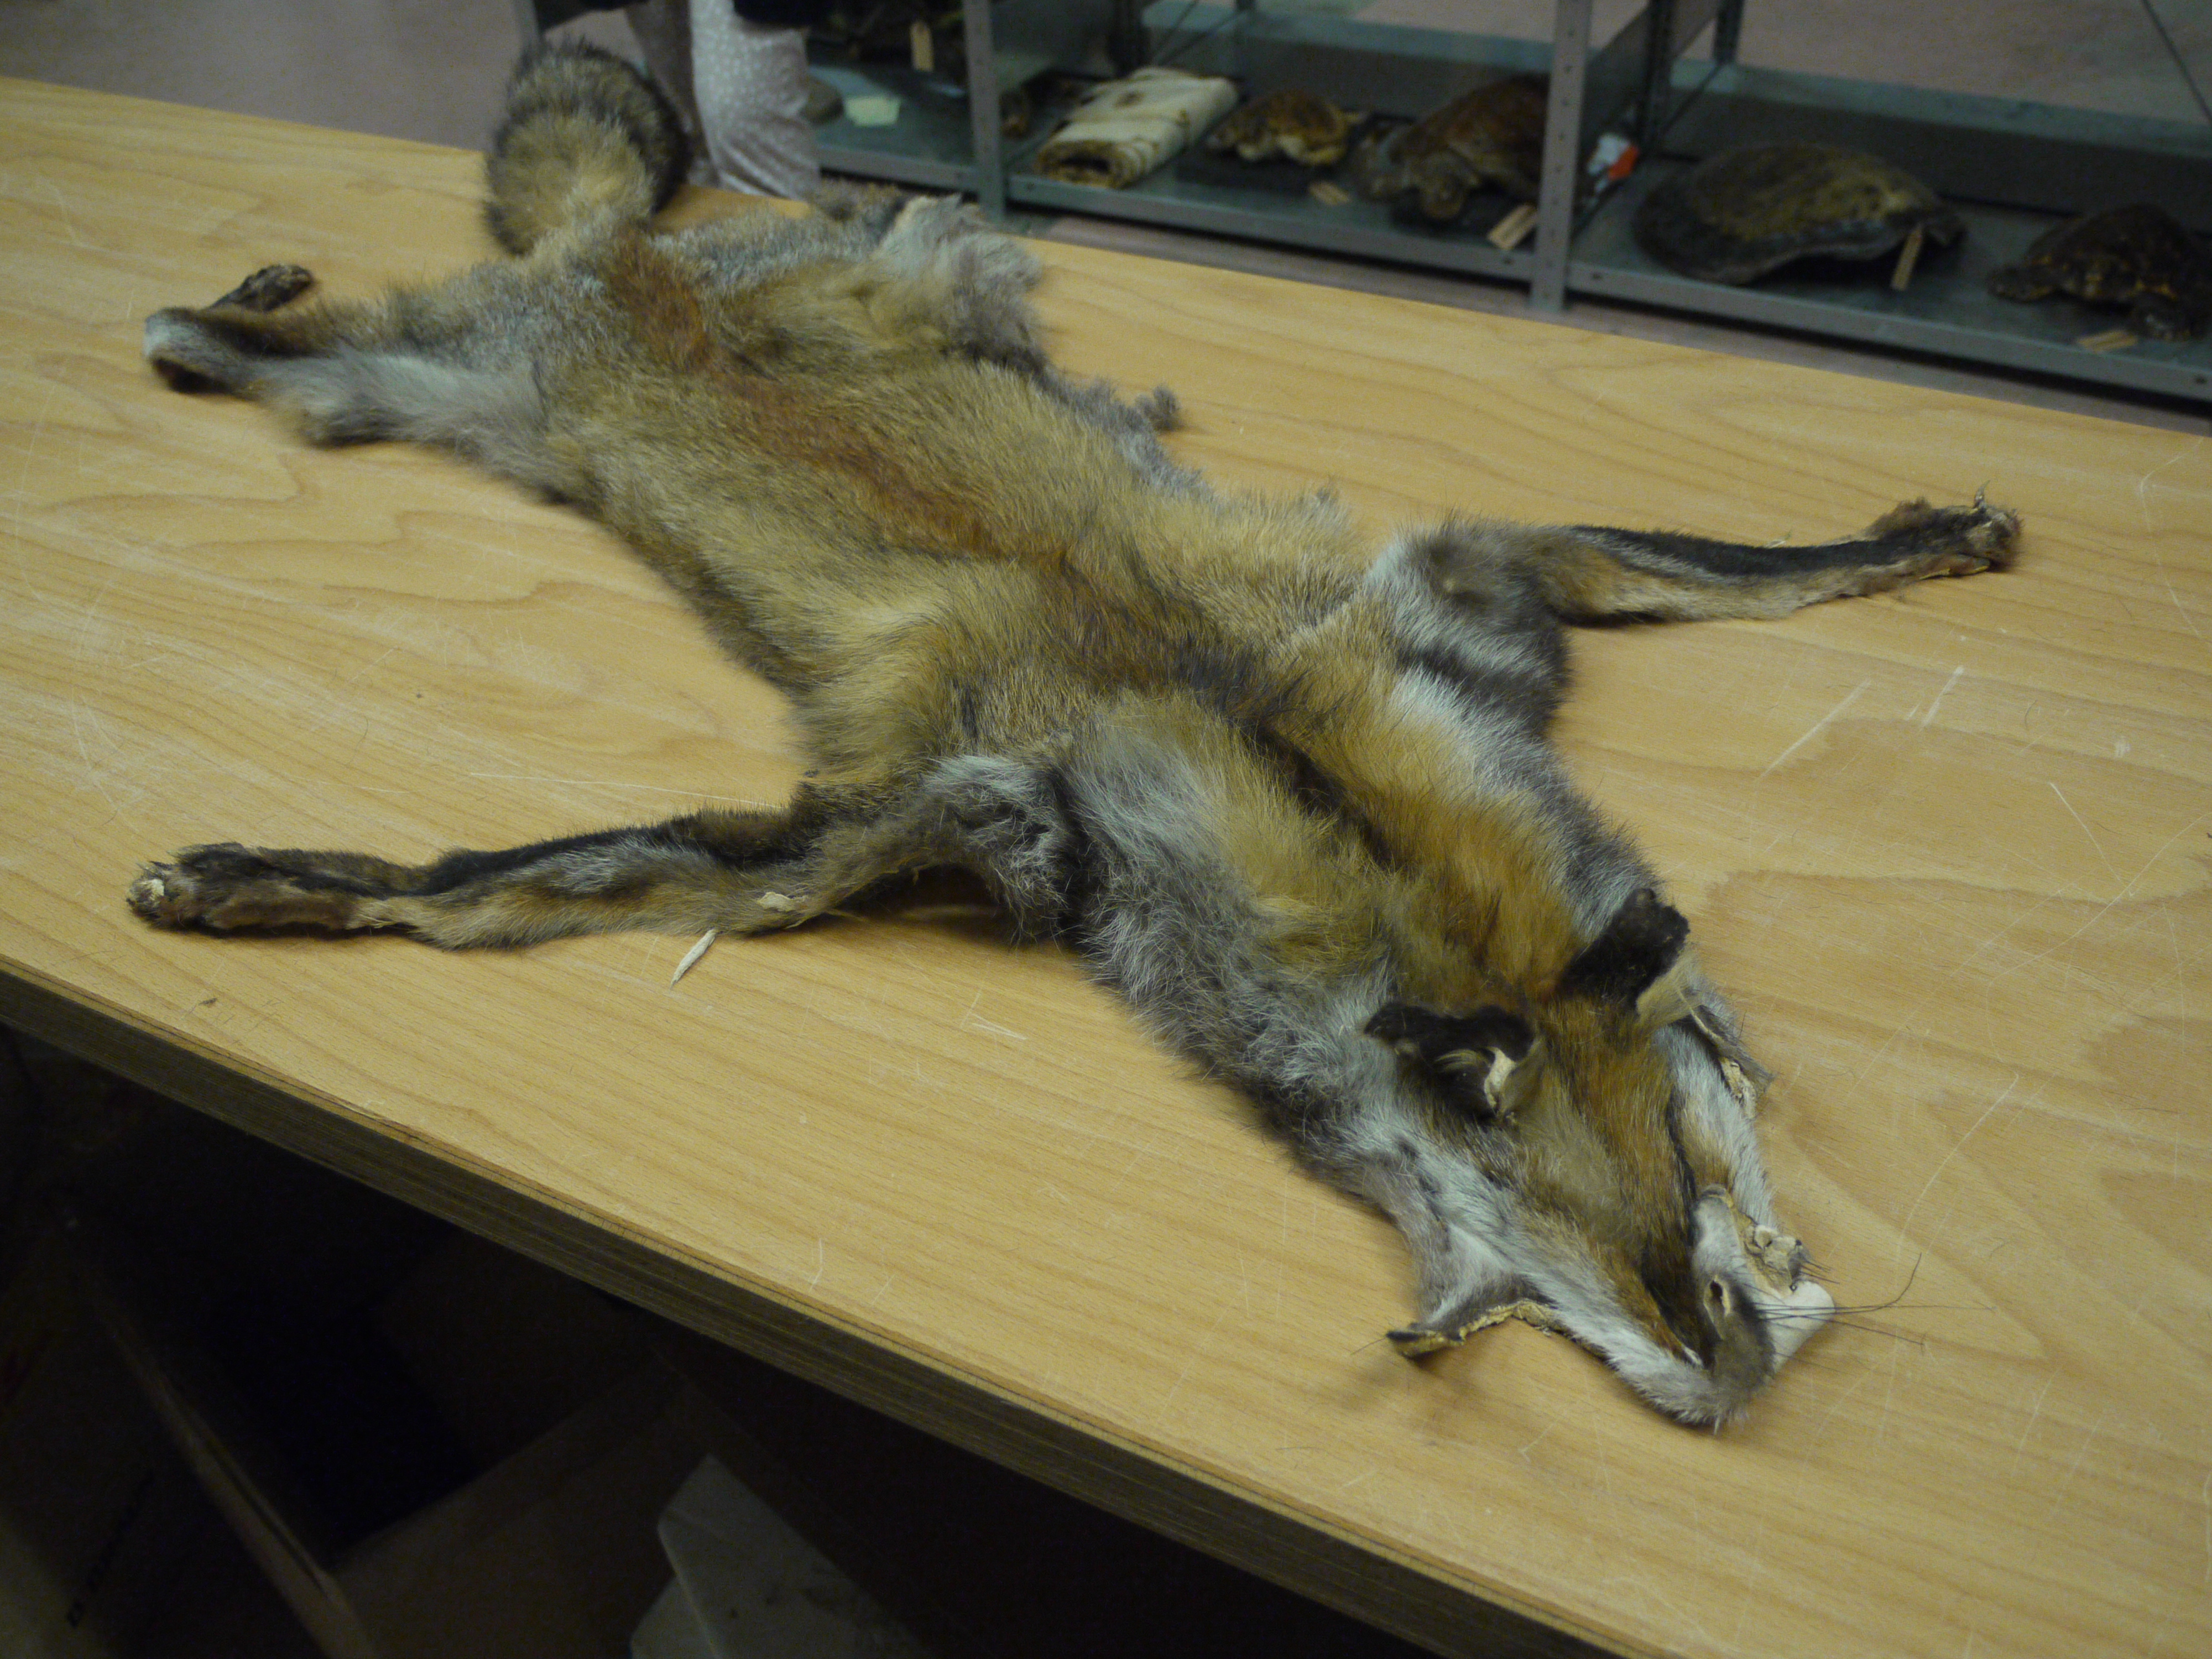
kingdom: Animalia
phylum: Chordata
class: Mammalia
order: Carnivora
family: Canidae
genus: Vulpes
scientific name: Vulpes vulpes
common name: Red fox
